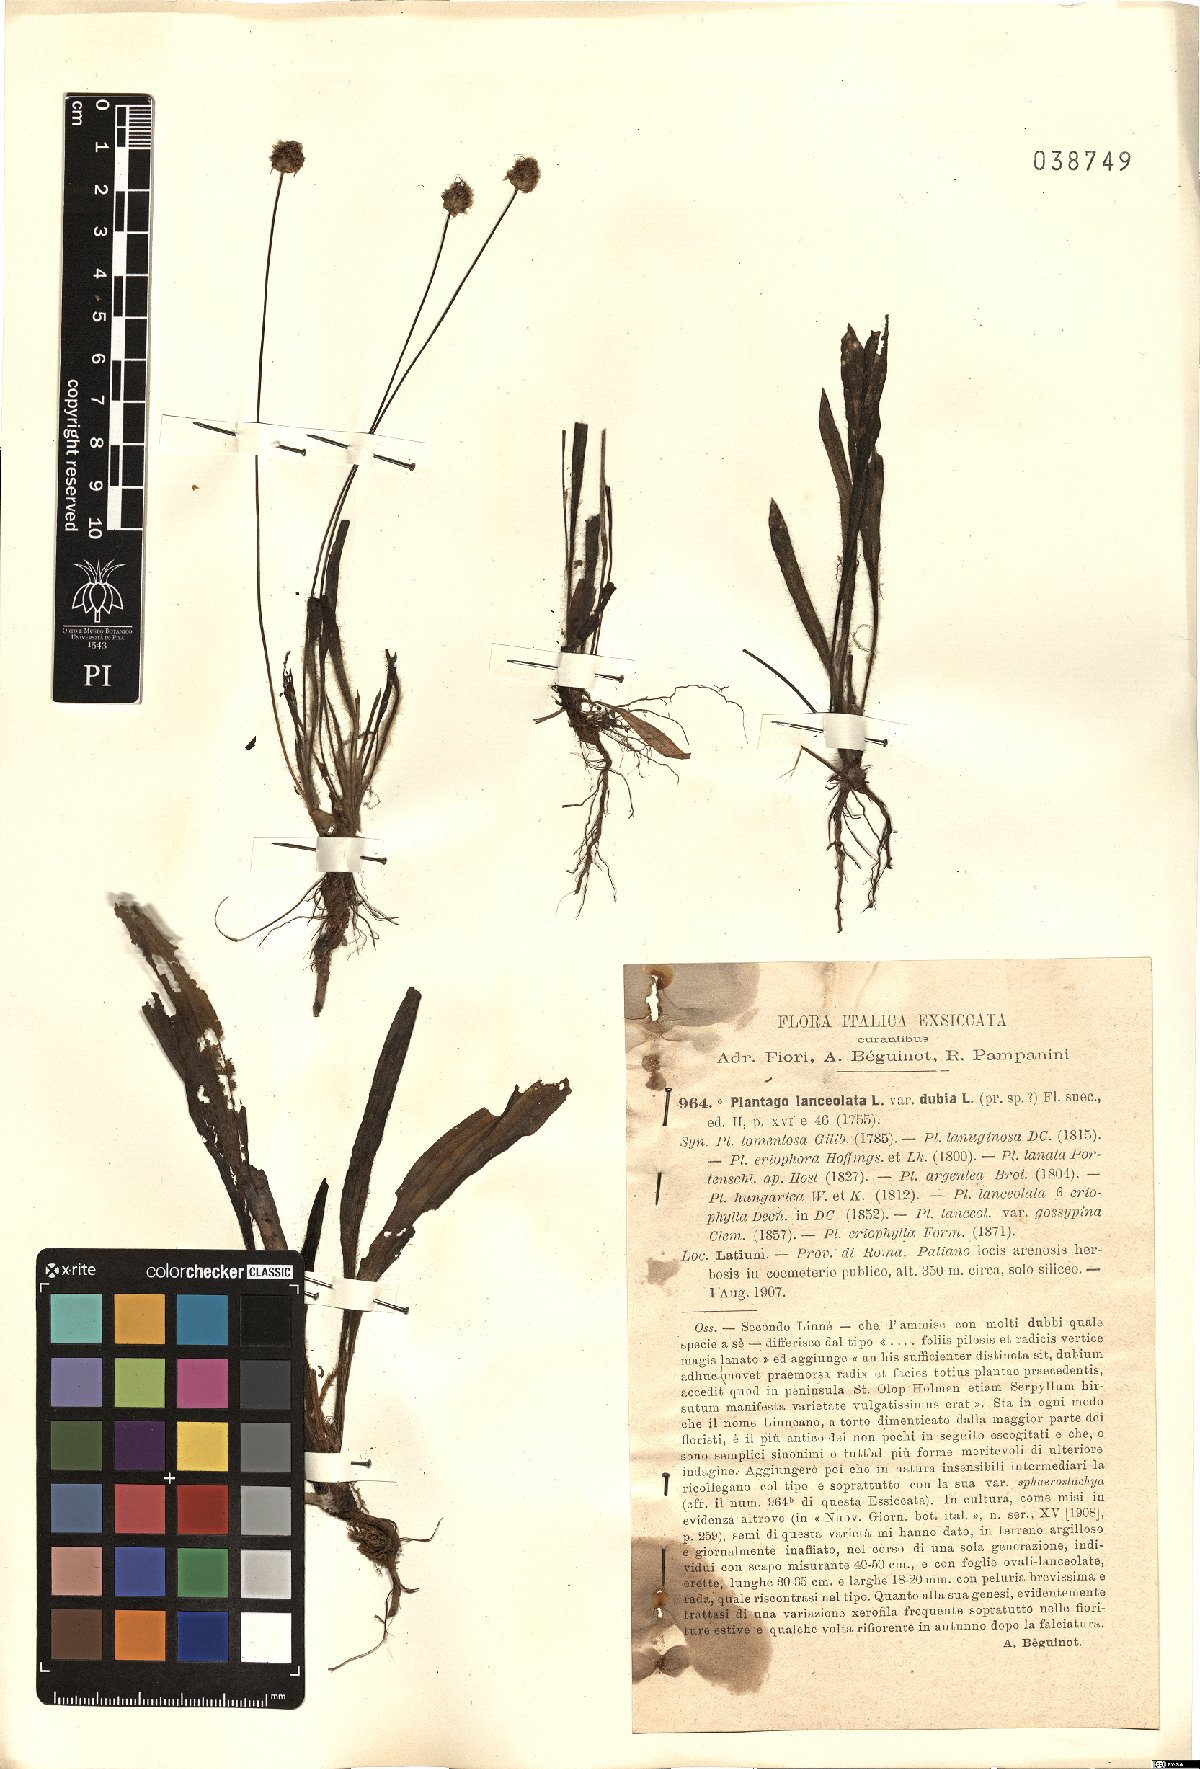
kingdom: Plantae
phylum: Tracheophyta
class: Magnoliopsida
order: Lamiales
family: Plantaginaceae
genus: Plantago
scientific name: Plantago lanceolata
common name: Ribwort plantain
